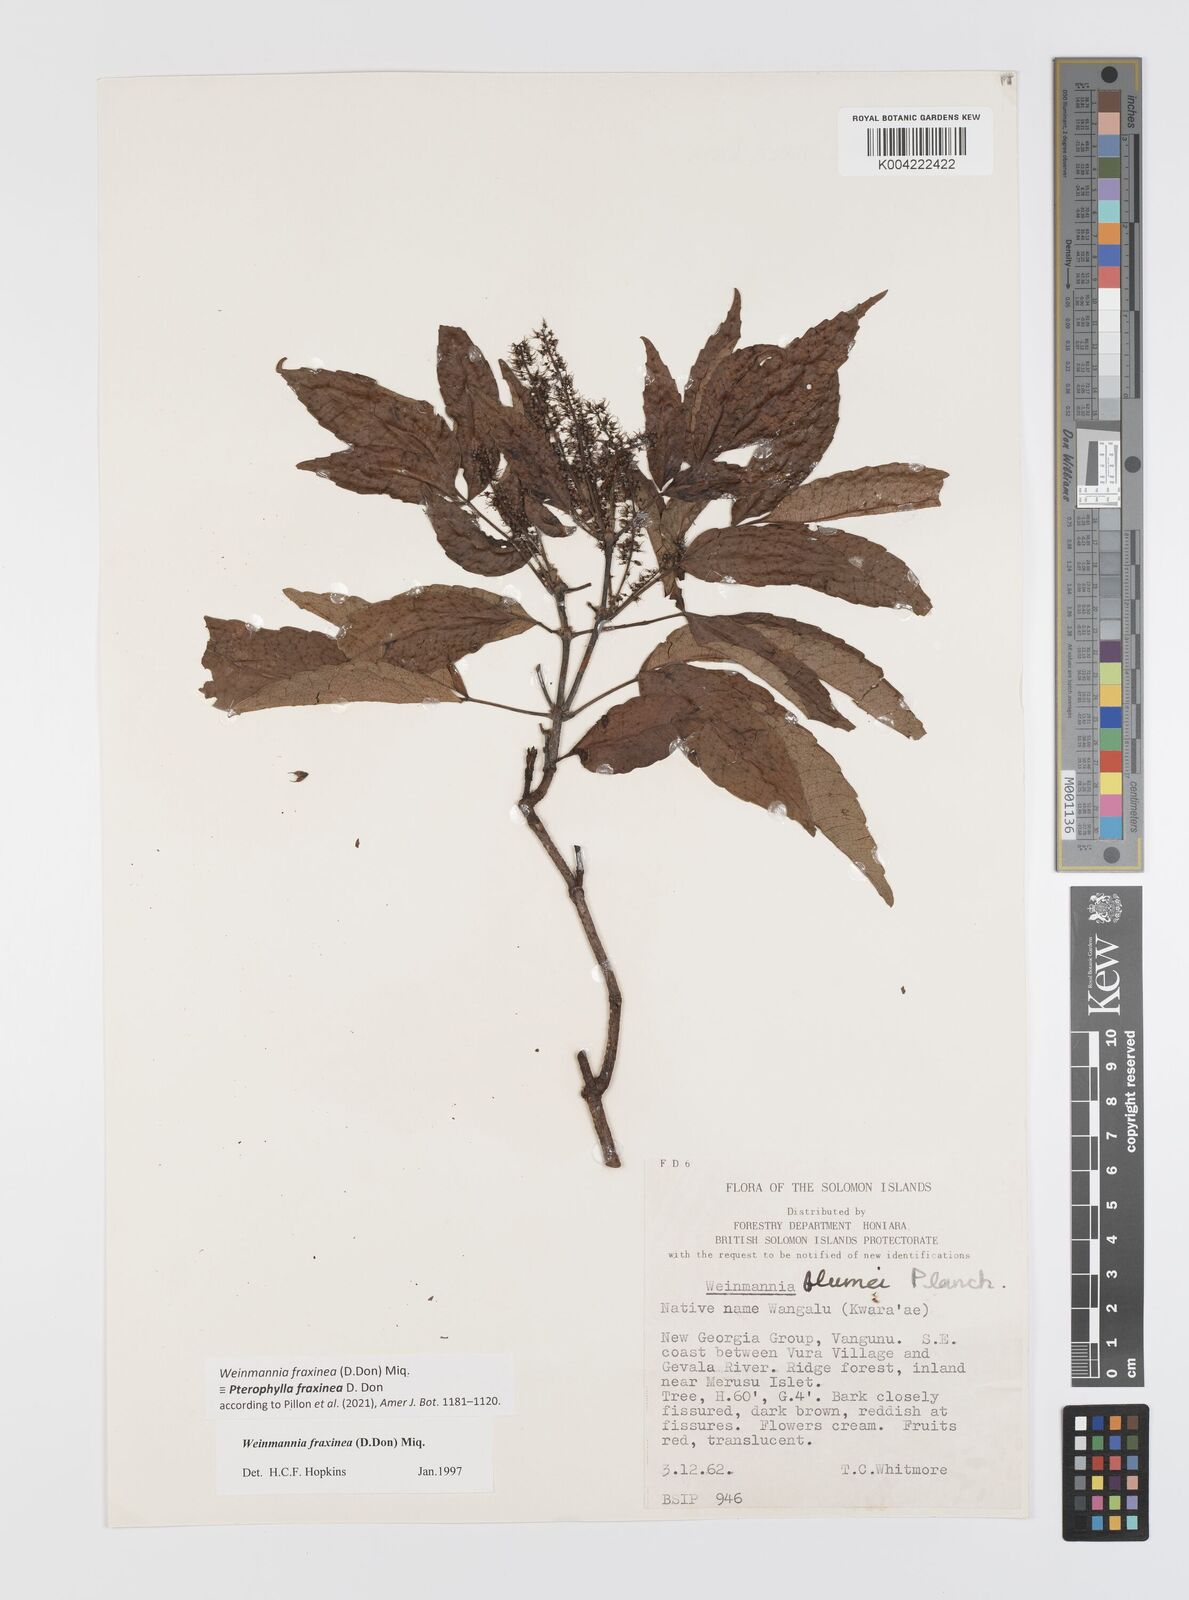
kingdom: Plantae
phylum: Tracheophyta
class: Magnoliopsida
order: Oxalidales
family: Cunoniaceae
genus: Pterophylla
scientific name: Pterophylla fraxinea
